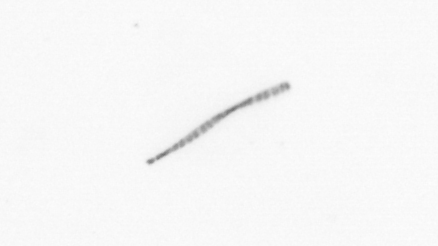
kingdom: Chromista
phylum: Ochrophyta
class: Bacillariophyceae
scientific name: Bacillariophyceae
